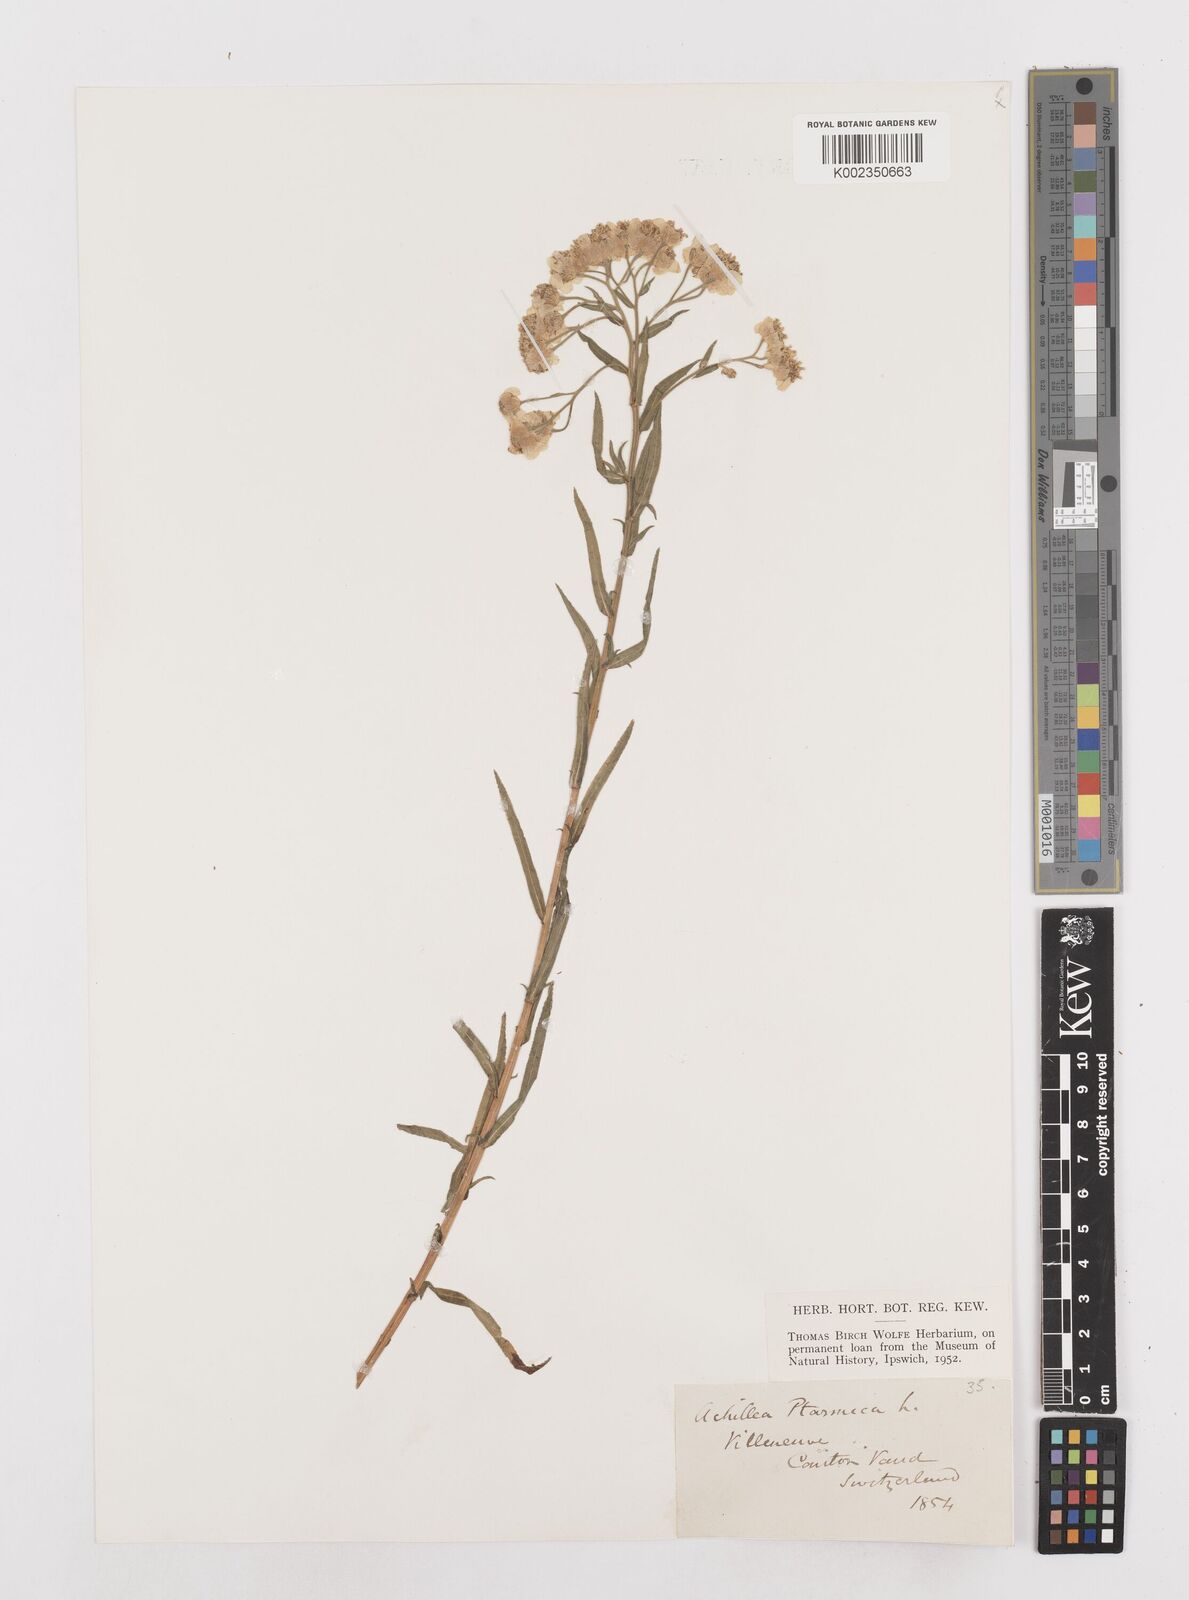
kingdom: Plantae
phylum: Tracheophyta
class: Magnoliopsida
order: Asterales
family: Asteraceae
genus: Achillea
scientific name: Achillea ptarmica
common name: Sneezeweed
